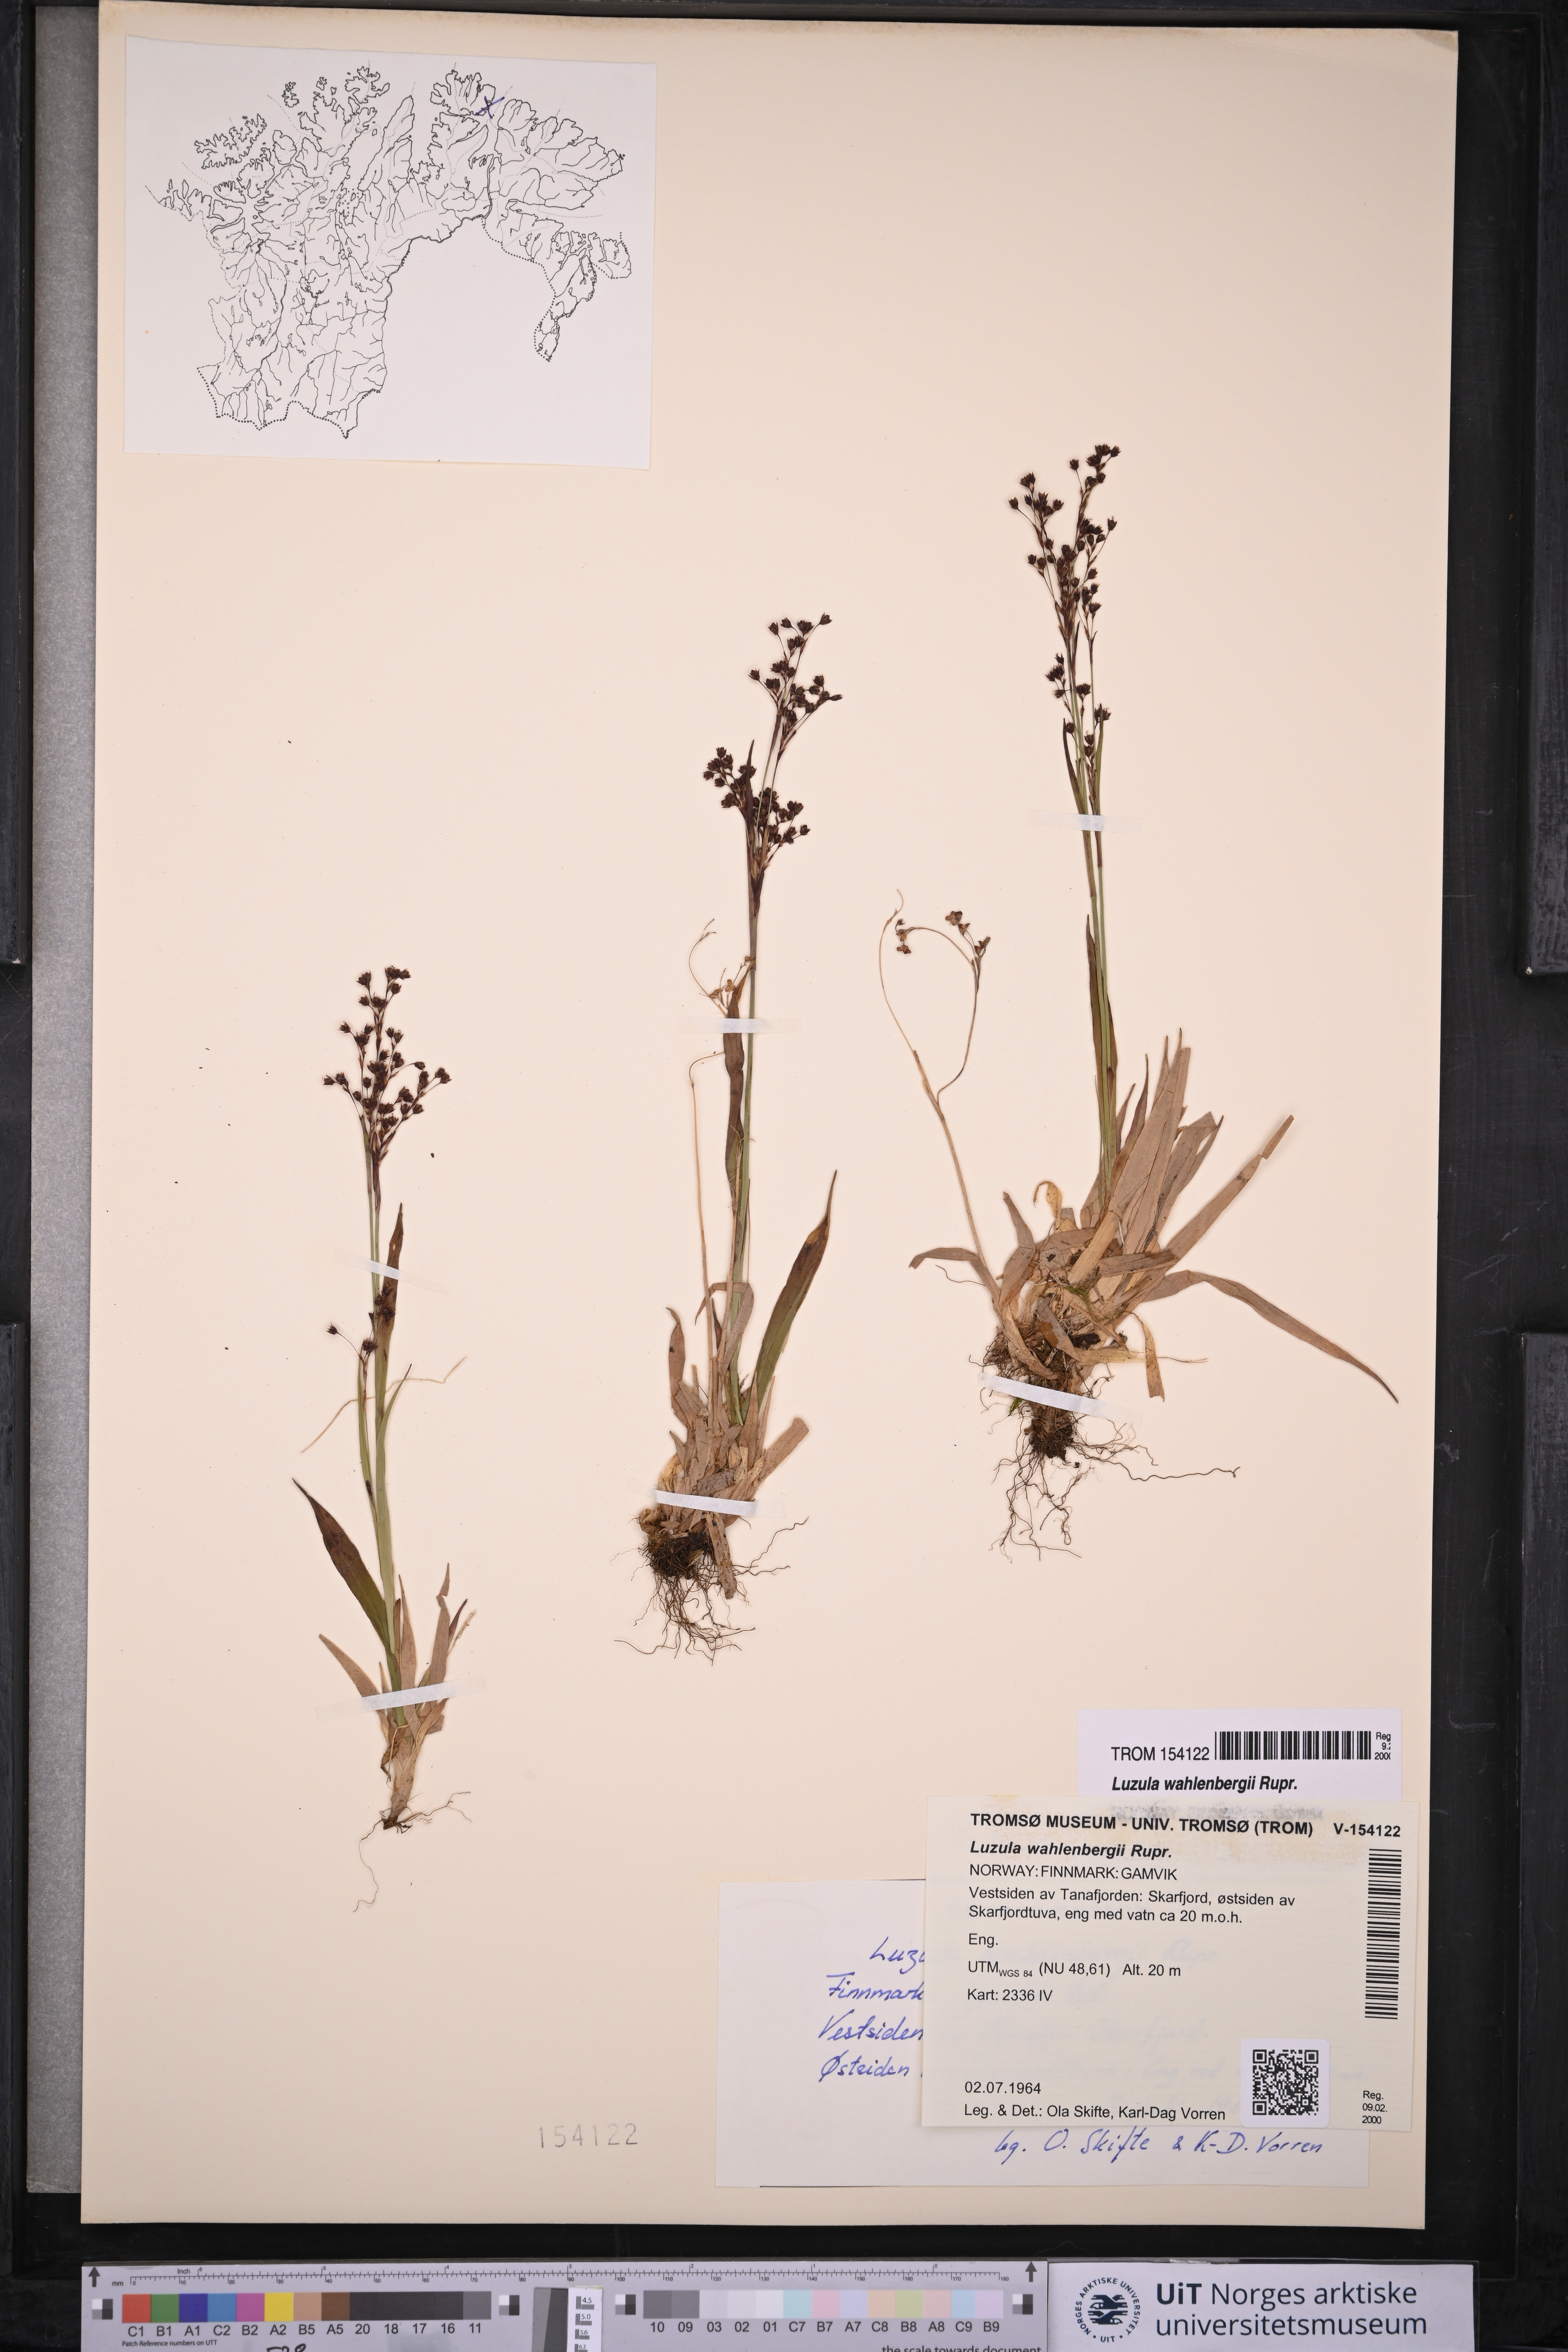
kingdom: Plantae
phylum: Tracheophyta
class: Liliopsida
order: Poales
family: Juncaceae
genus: Luzula
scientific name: Luzula wahlenbergii
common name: Wahlenberg's wood-rush
